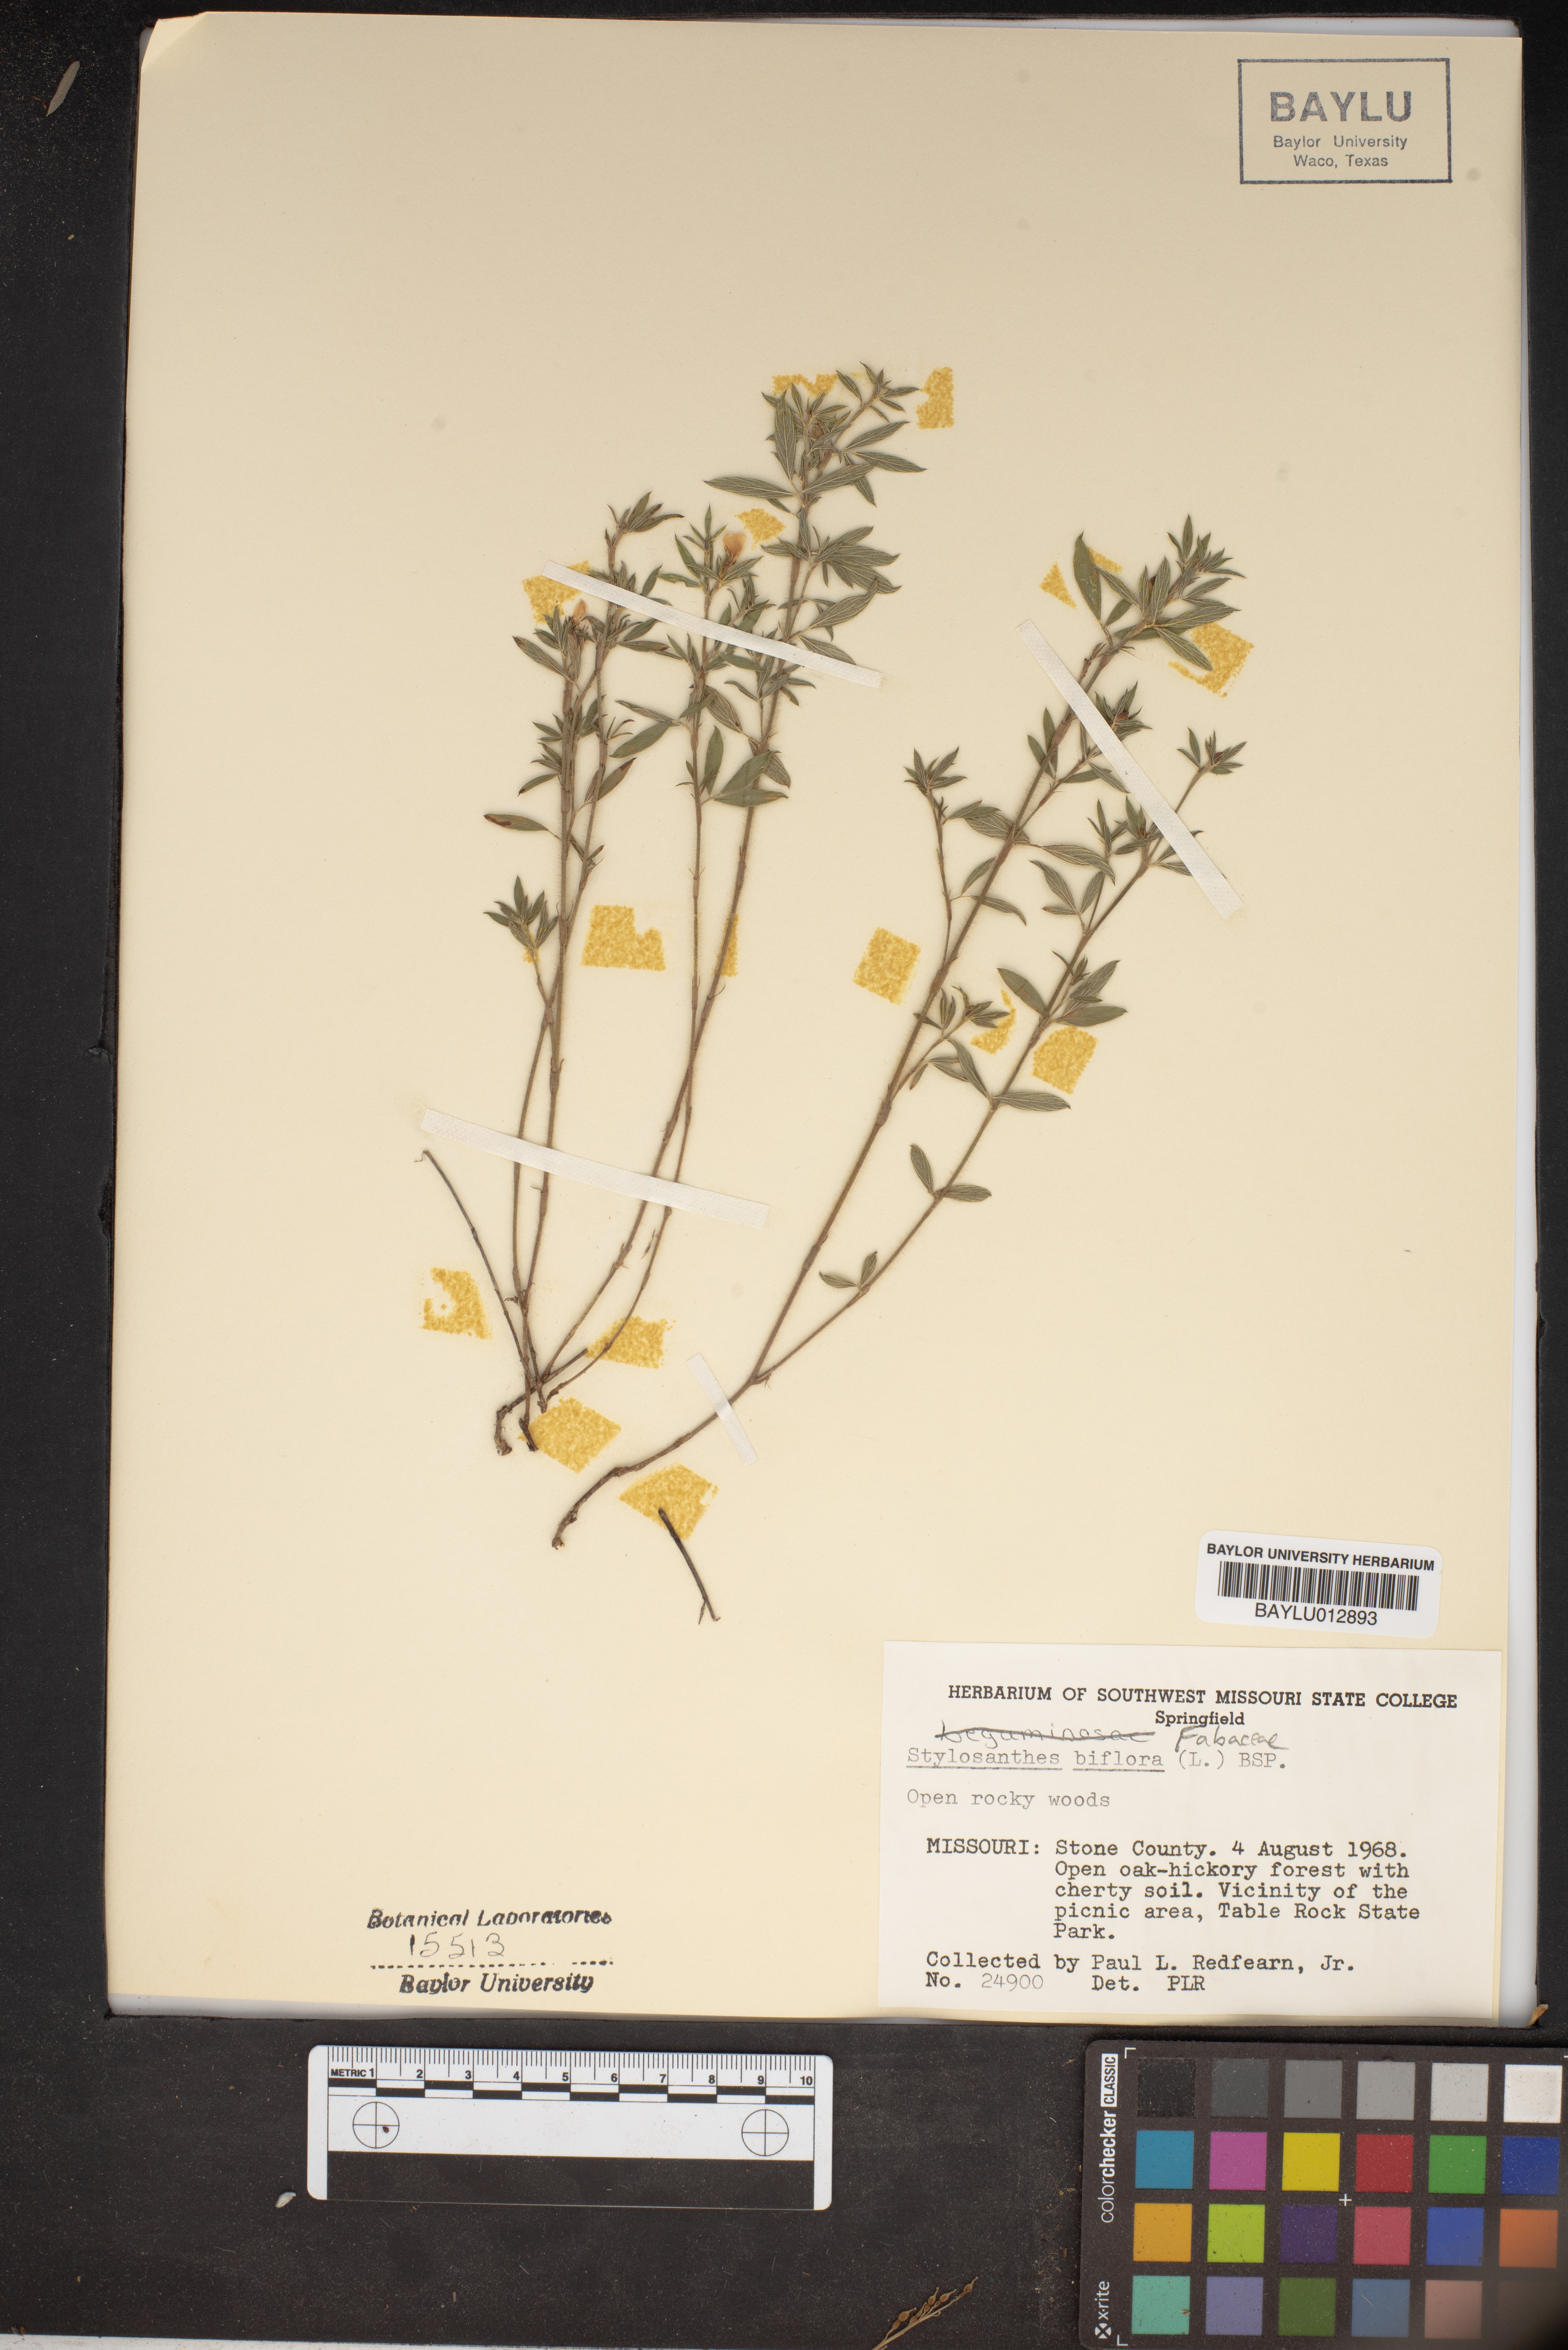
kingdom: Plantae
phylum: Tracheophyta
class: Magnoliopsida
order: Fabales
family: Fabaceae
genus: Stylosanthes
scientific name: Stylosanthes biflora
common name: Two-flower pencil-flower
